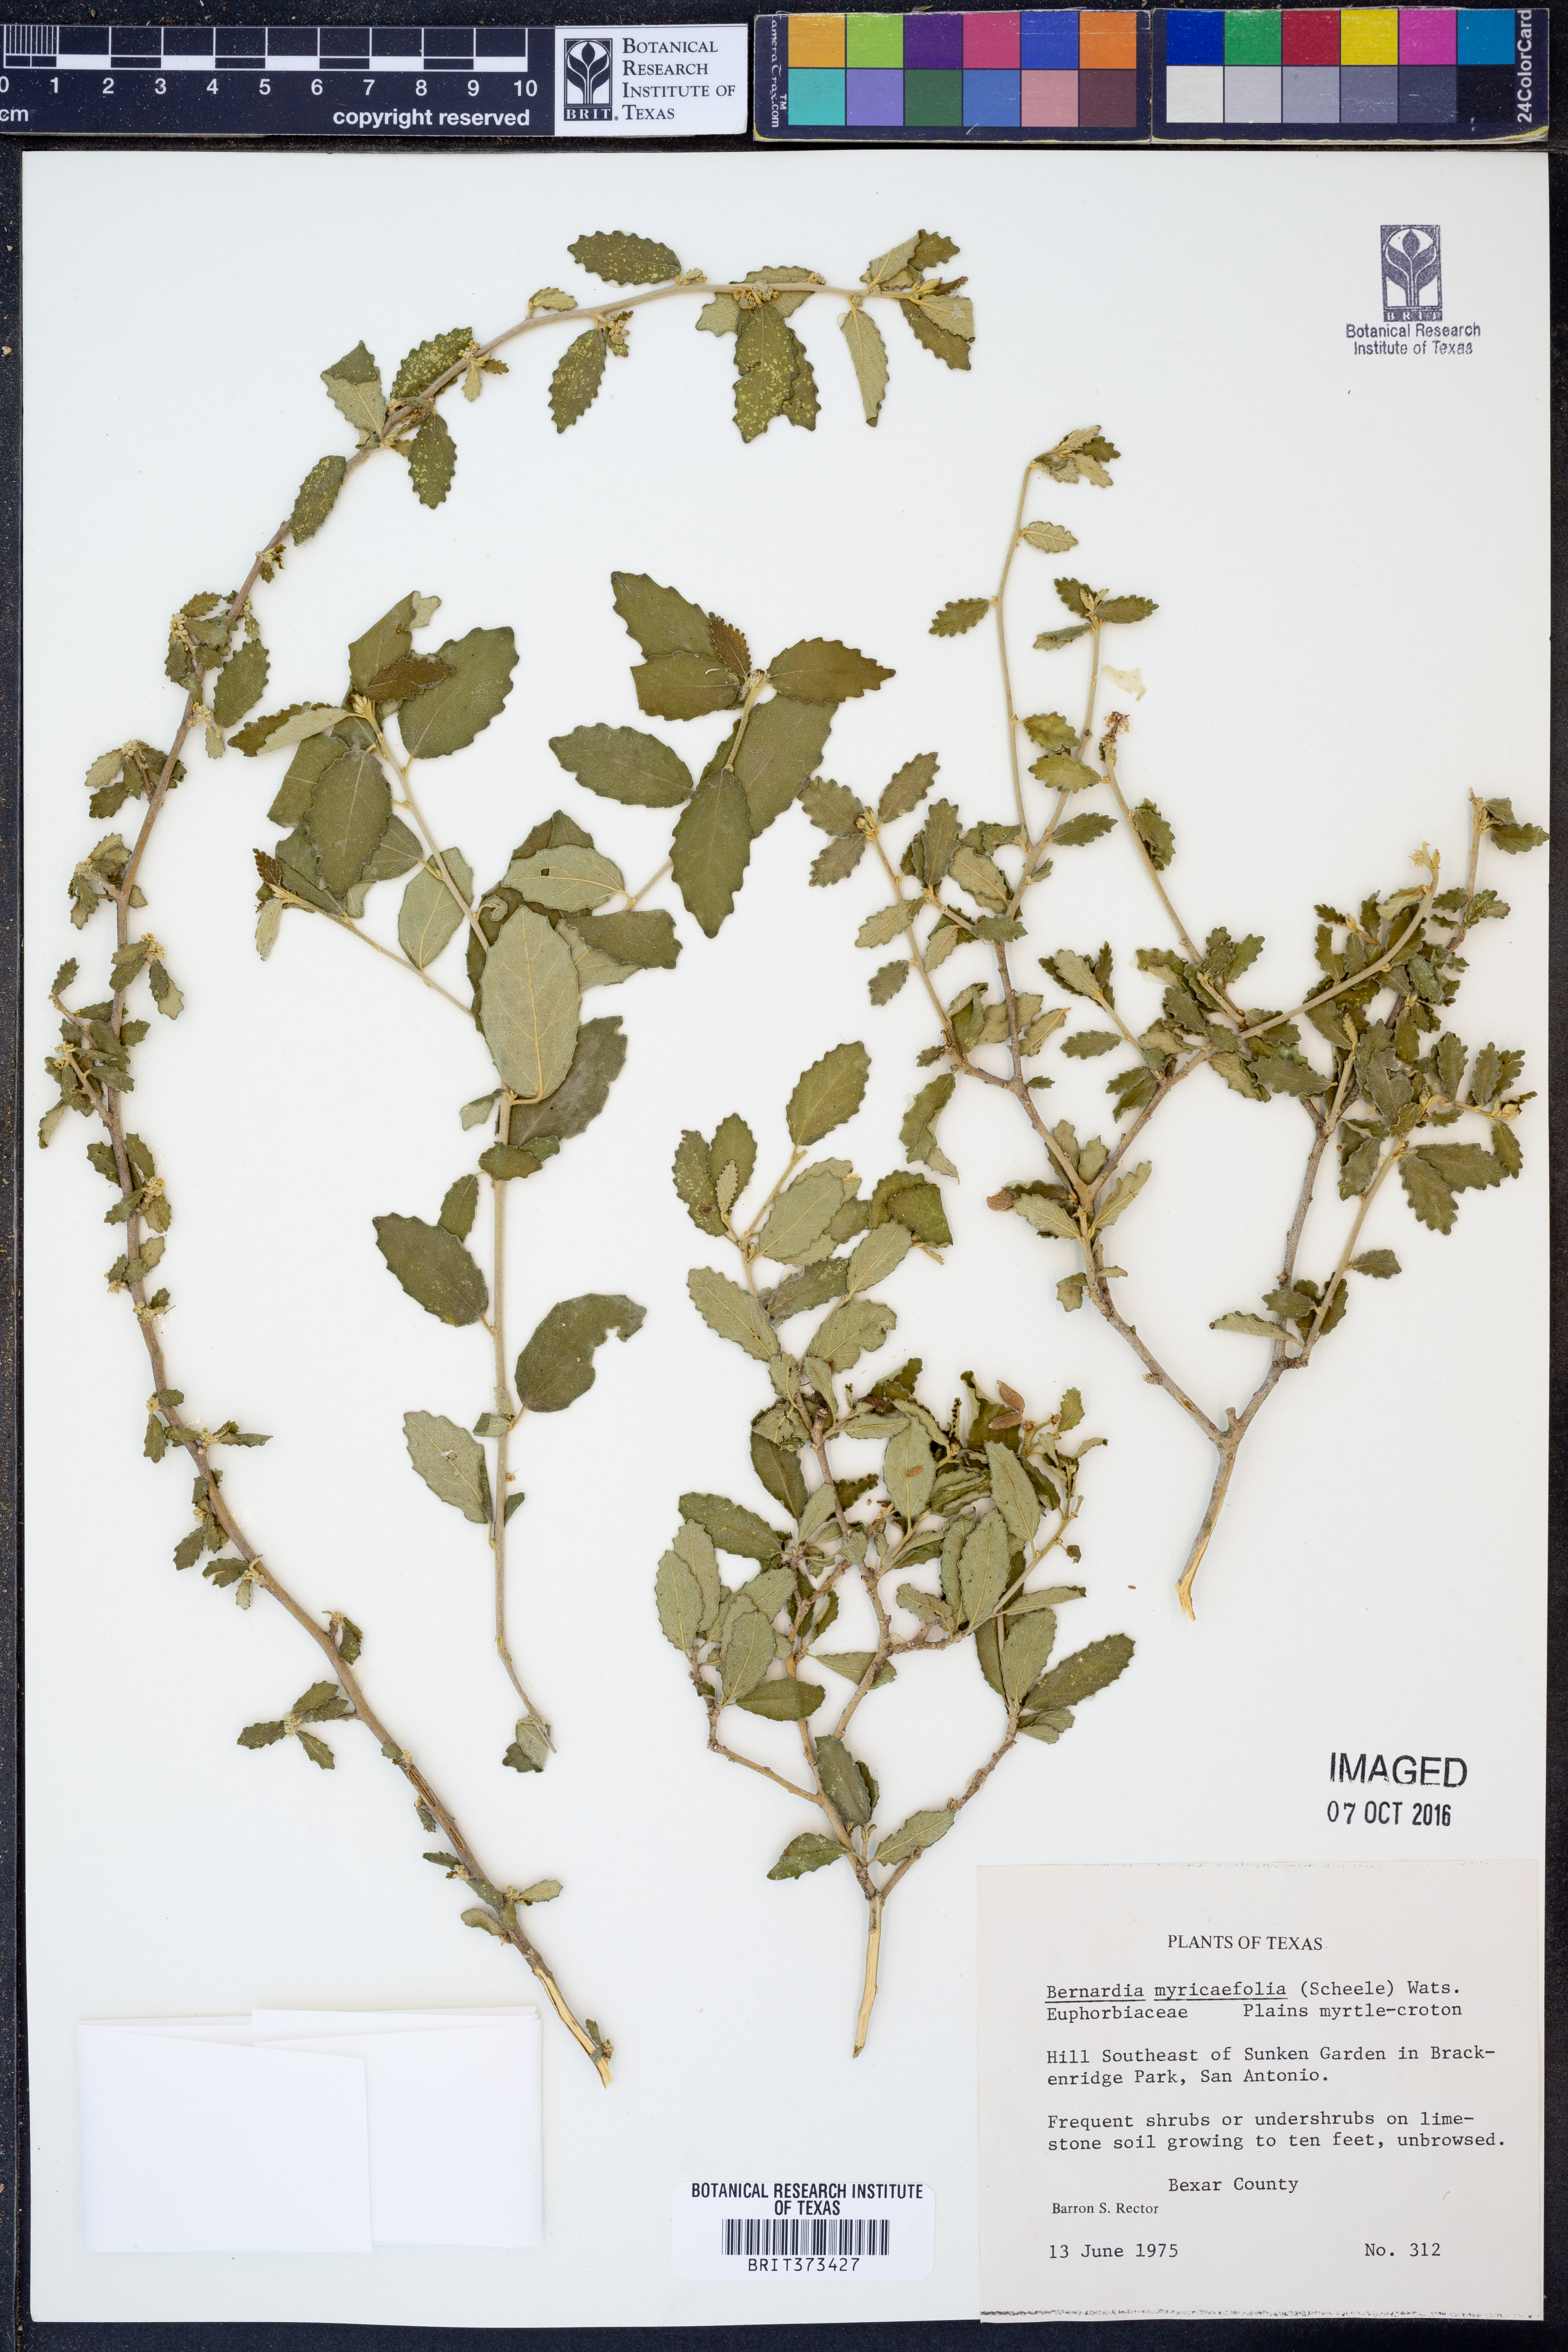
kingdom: Plantae
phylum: Tracheophyta
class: Magnoliopsida
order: Malpighiales
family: Euphorbiaceae
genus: Bernardia
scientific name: Bernardia myricifolia
